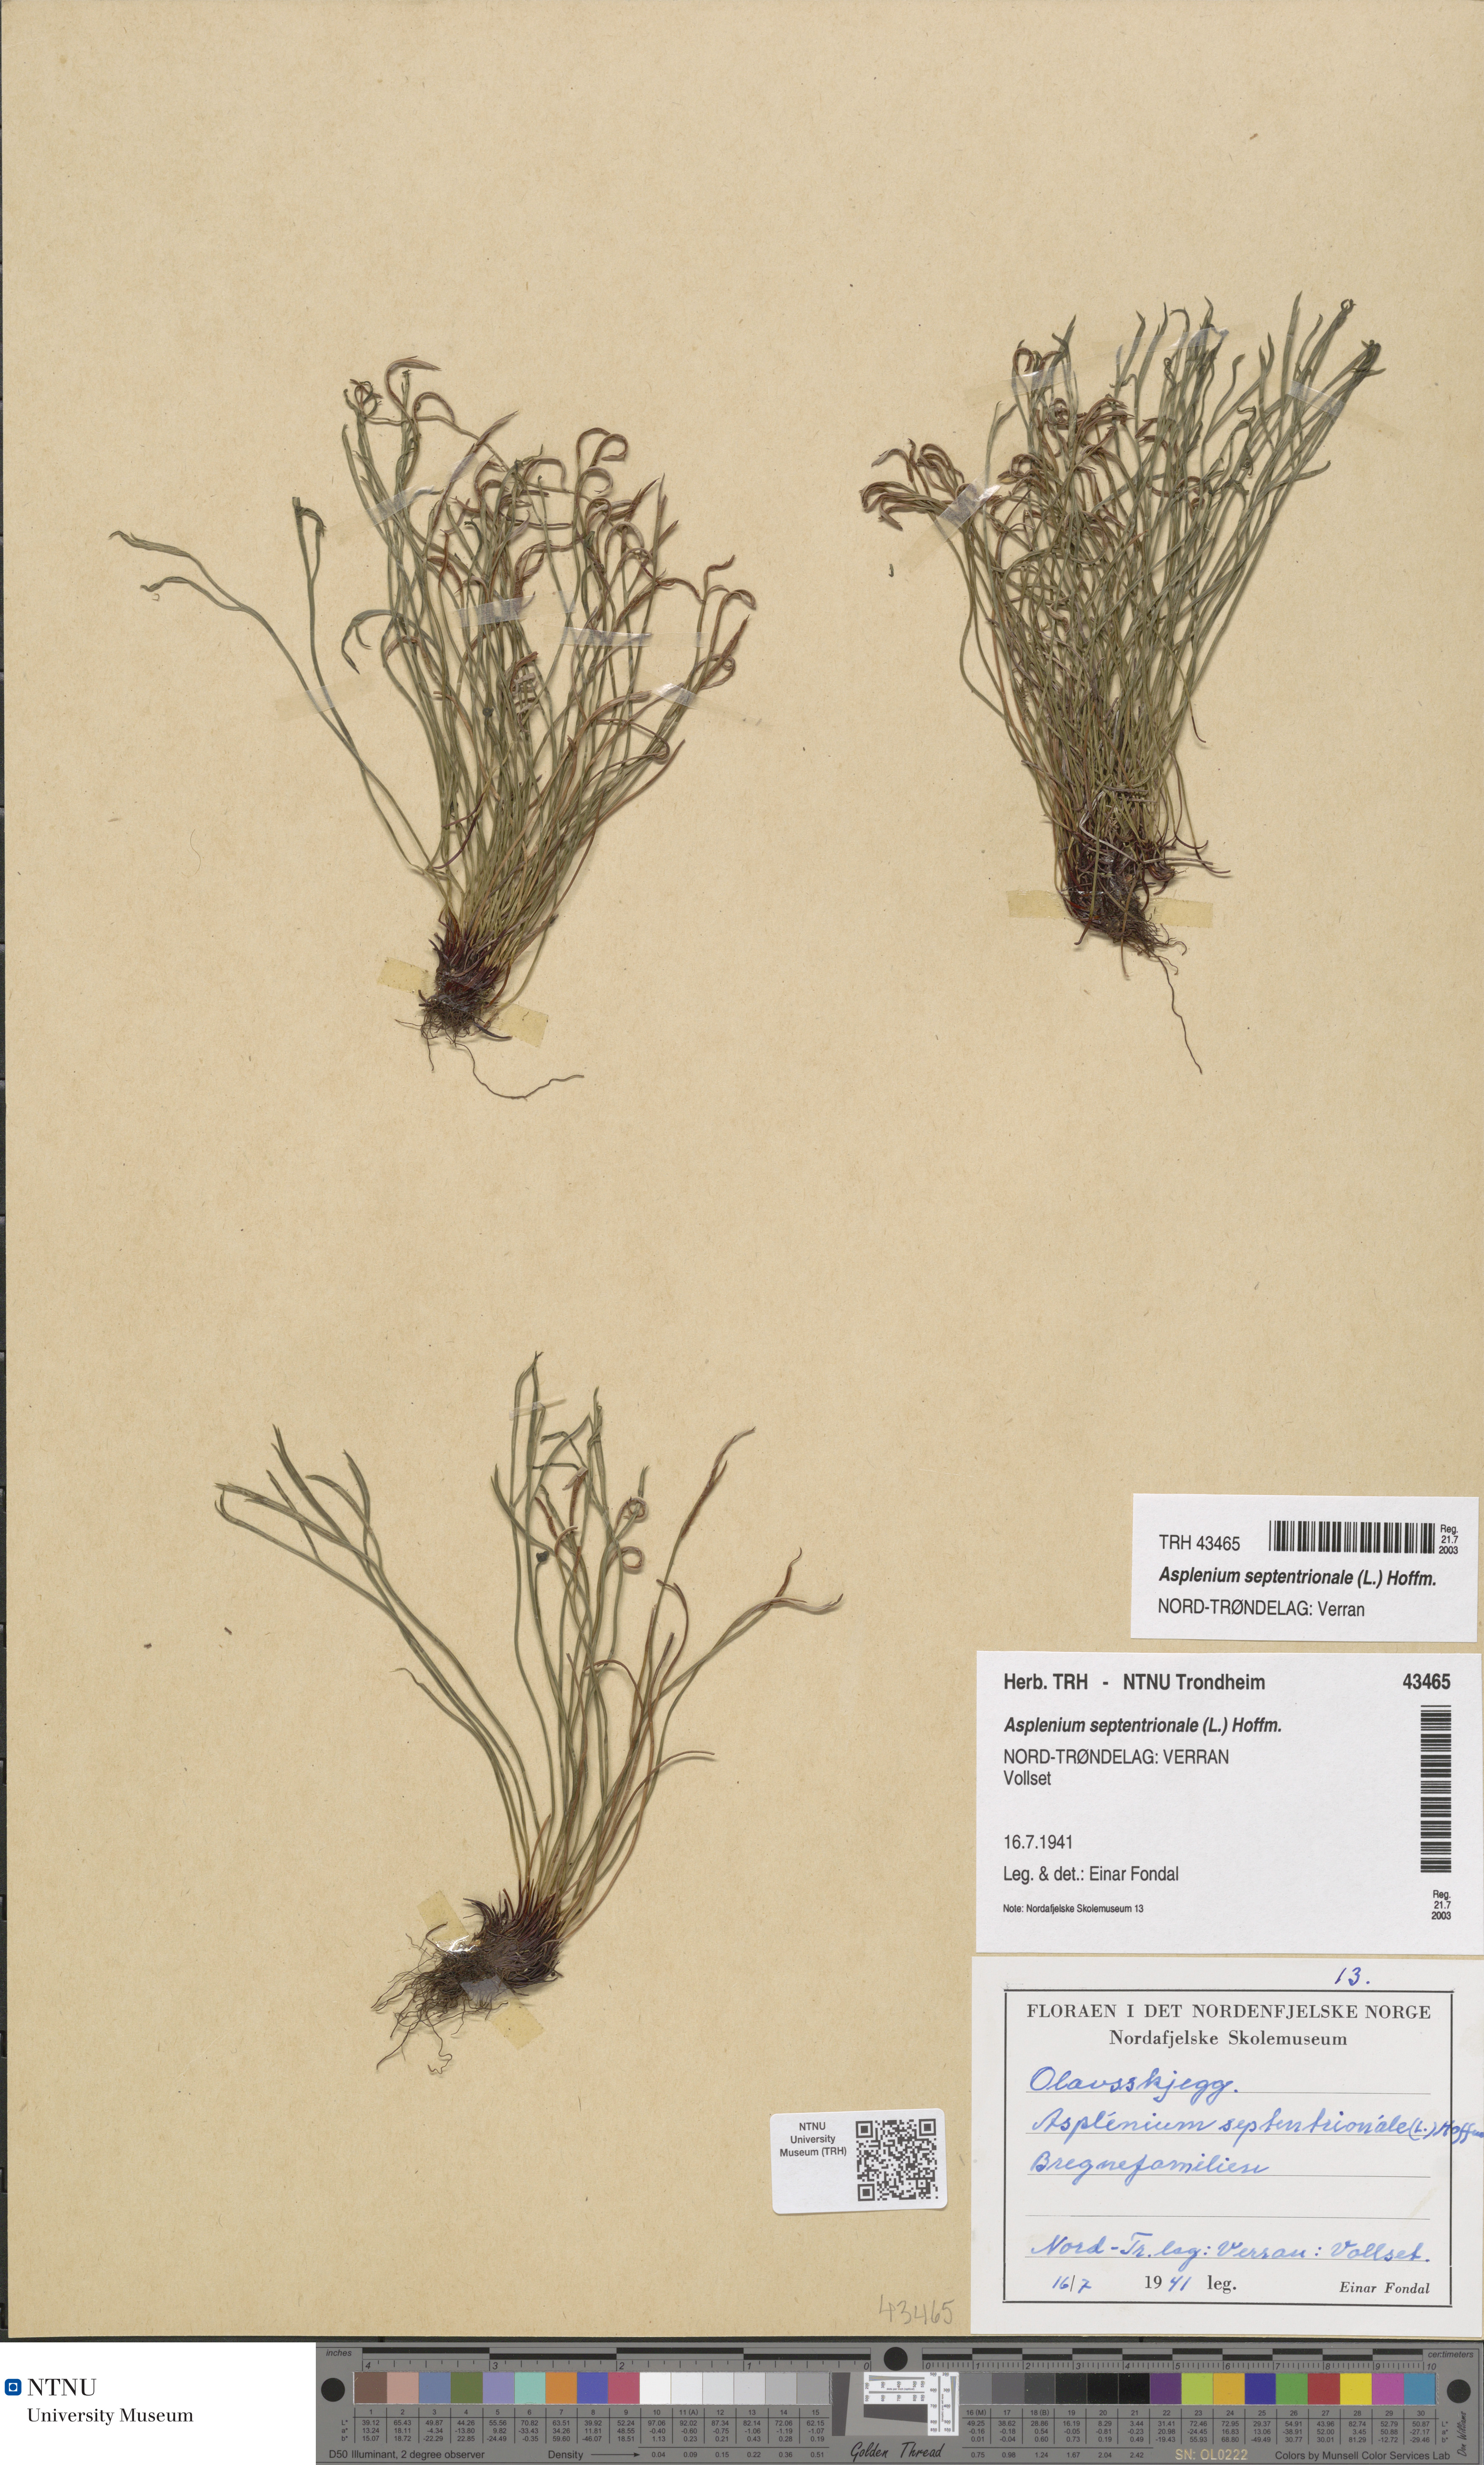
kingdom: Plantae
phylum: Tracheophyta
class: Polypodiopsida
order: Polypodiales
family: Aspleniaceae
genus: Asplenium
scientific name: Asplenium septentrionale
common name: Forked spleenwort
